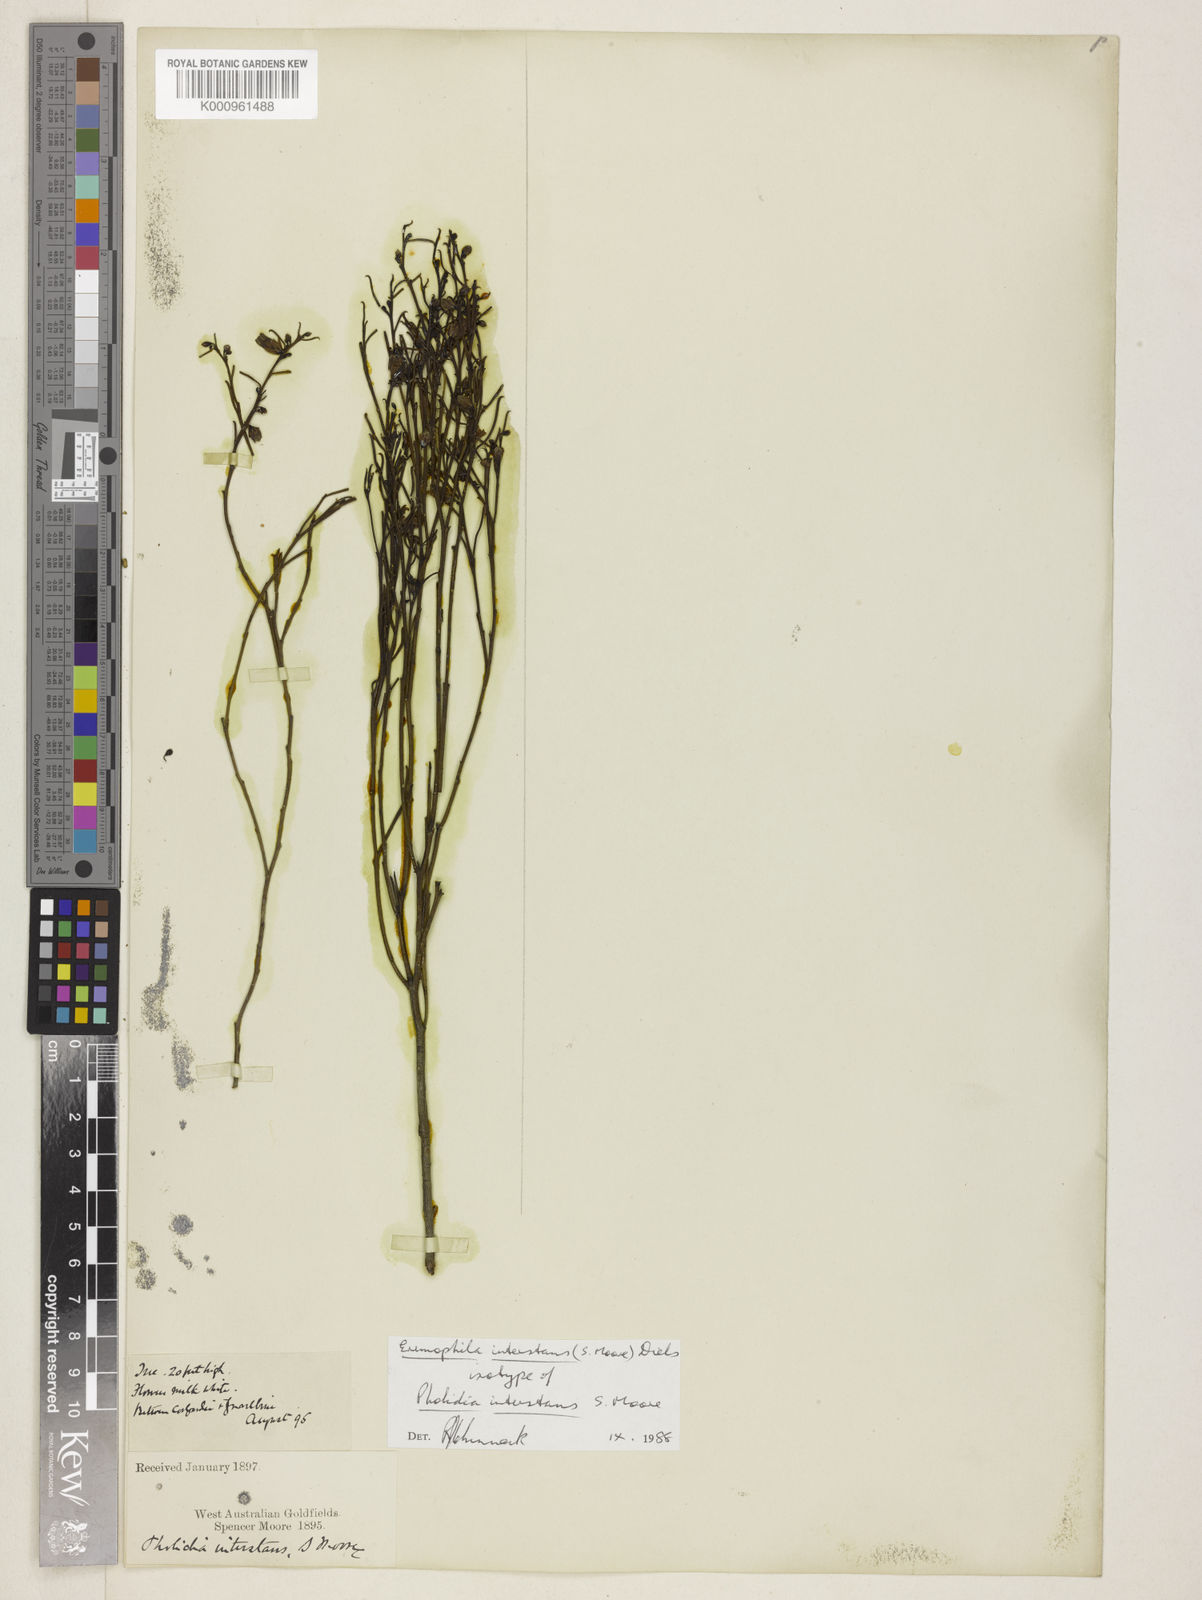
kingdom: Plantae
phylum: Tracheophyta
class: Magnoliopsida
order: Lamiales
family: Scrophulariaceae
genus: Eremophila
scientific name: Eremophila interstans
